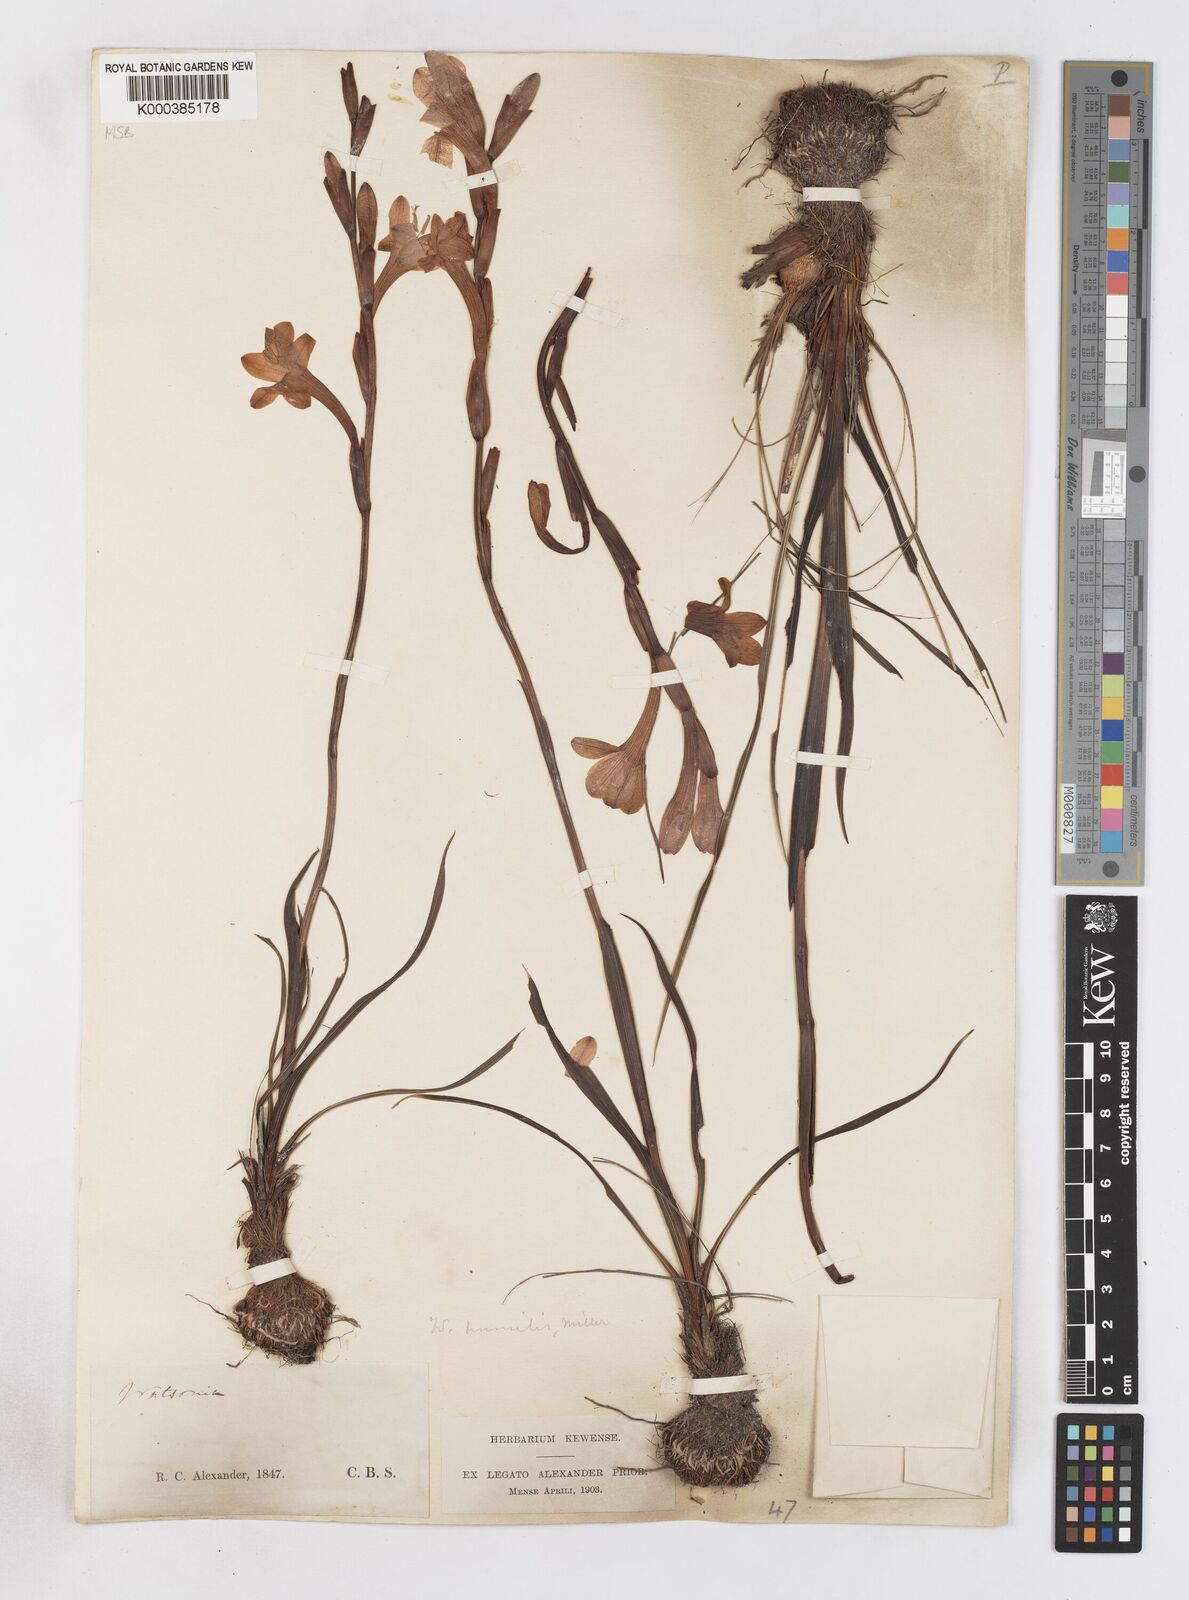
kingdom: Plantae
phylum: Tracheophyta
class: Liliopsida
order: Asparagales
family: Iridaceae
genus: Watsonia
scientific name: Watsonia humilis
